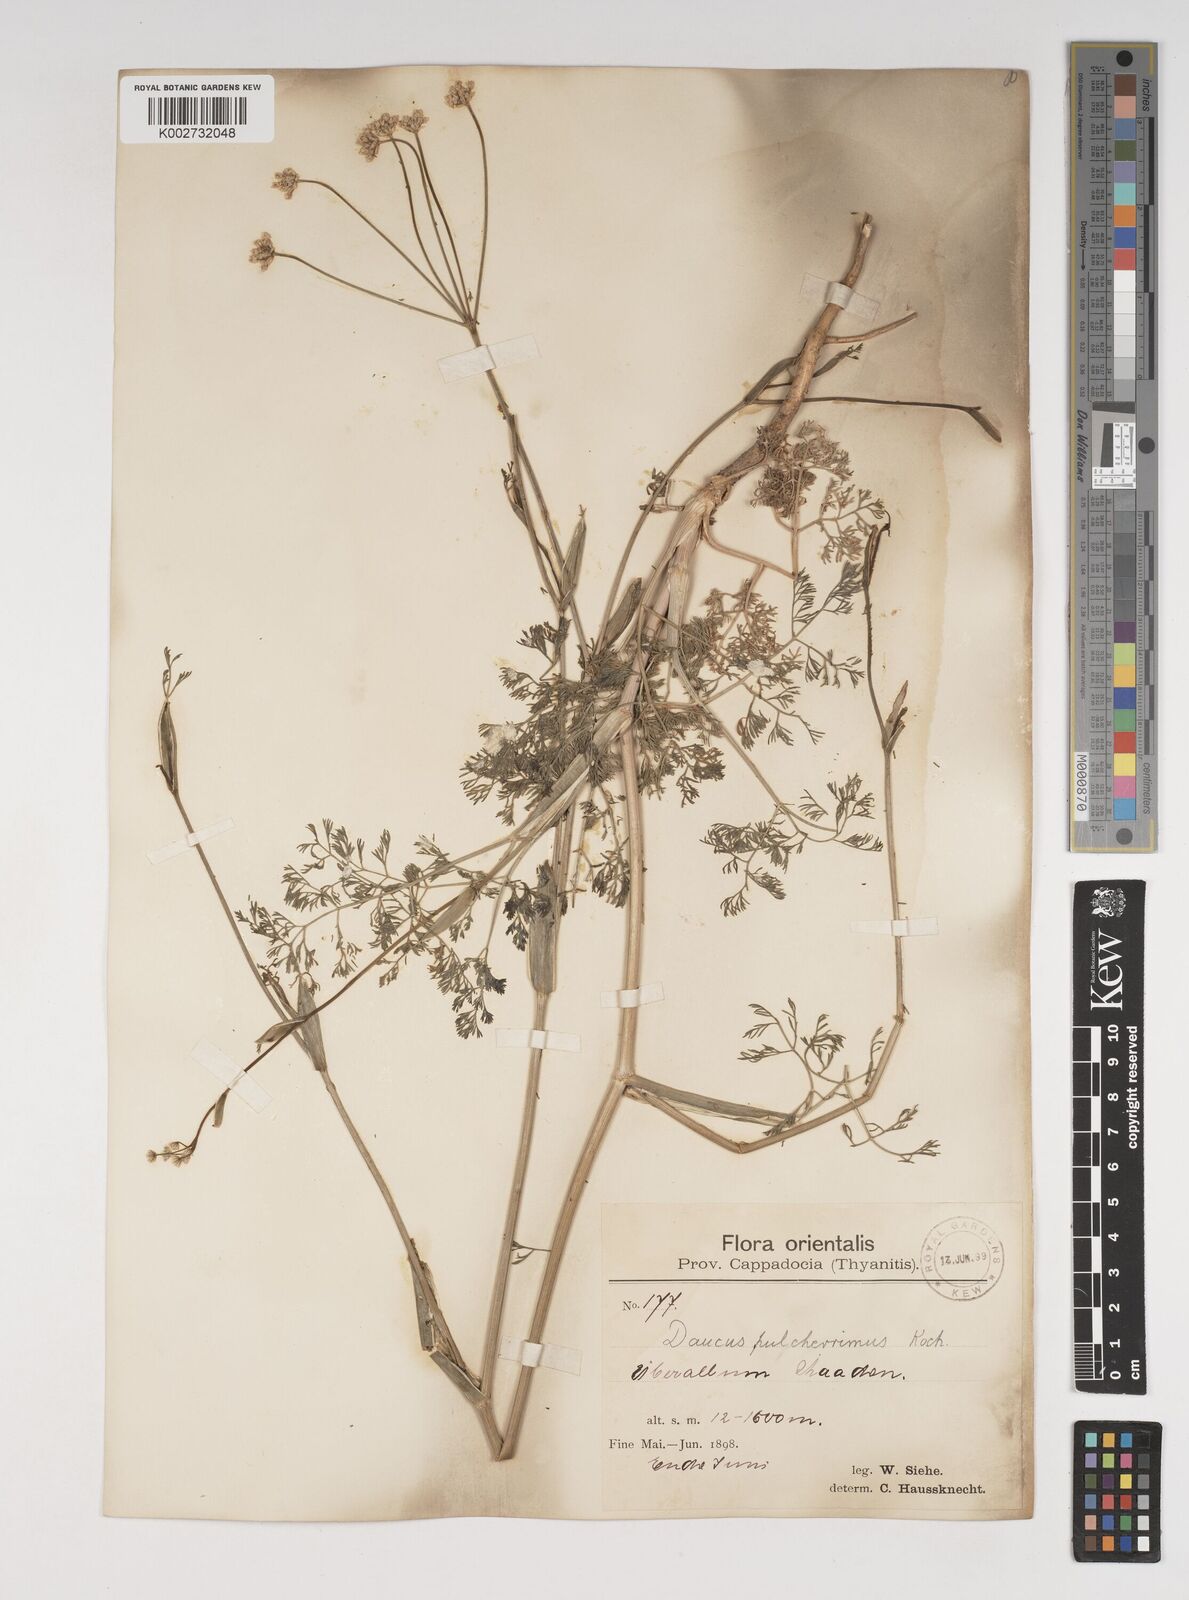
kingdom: Plantae
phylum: Tracheophyta
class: Magnoliopsida
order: Apiales
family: Apiaceae
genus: Astrodaucus
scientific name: Astrodaucus
